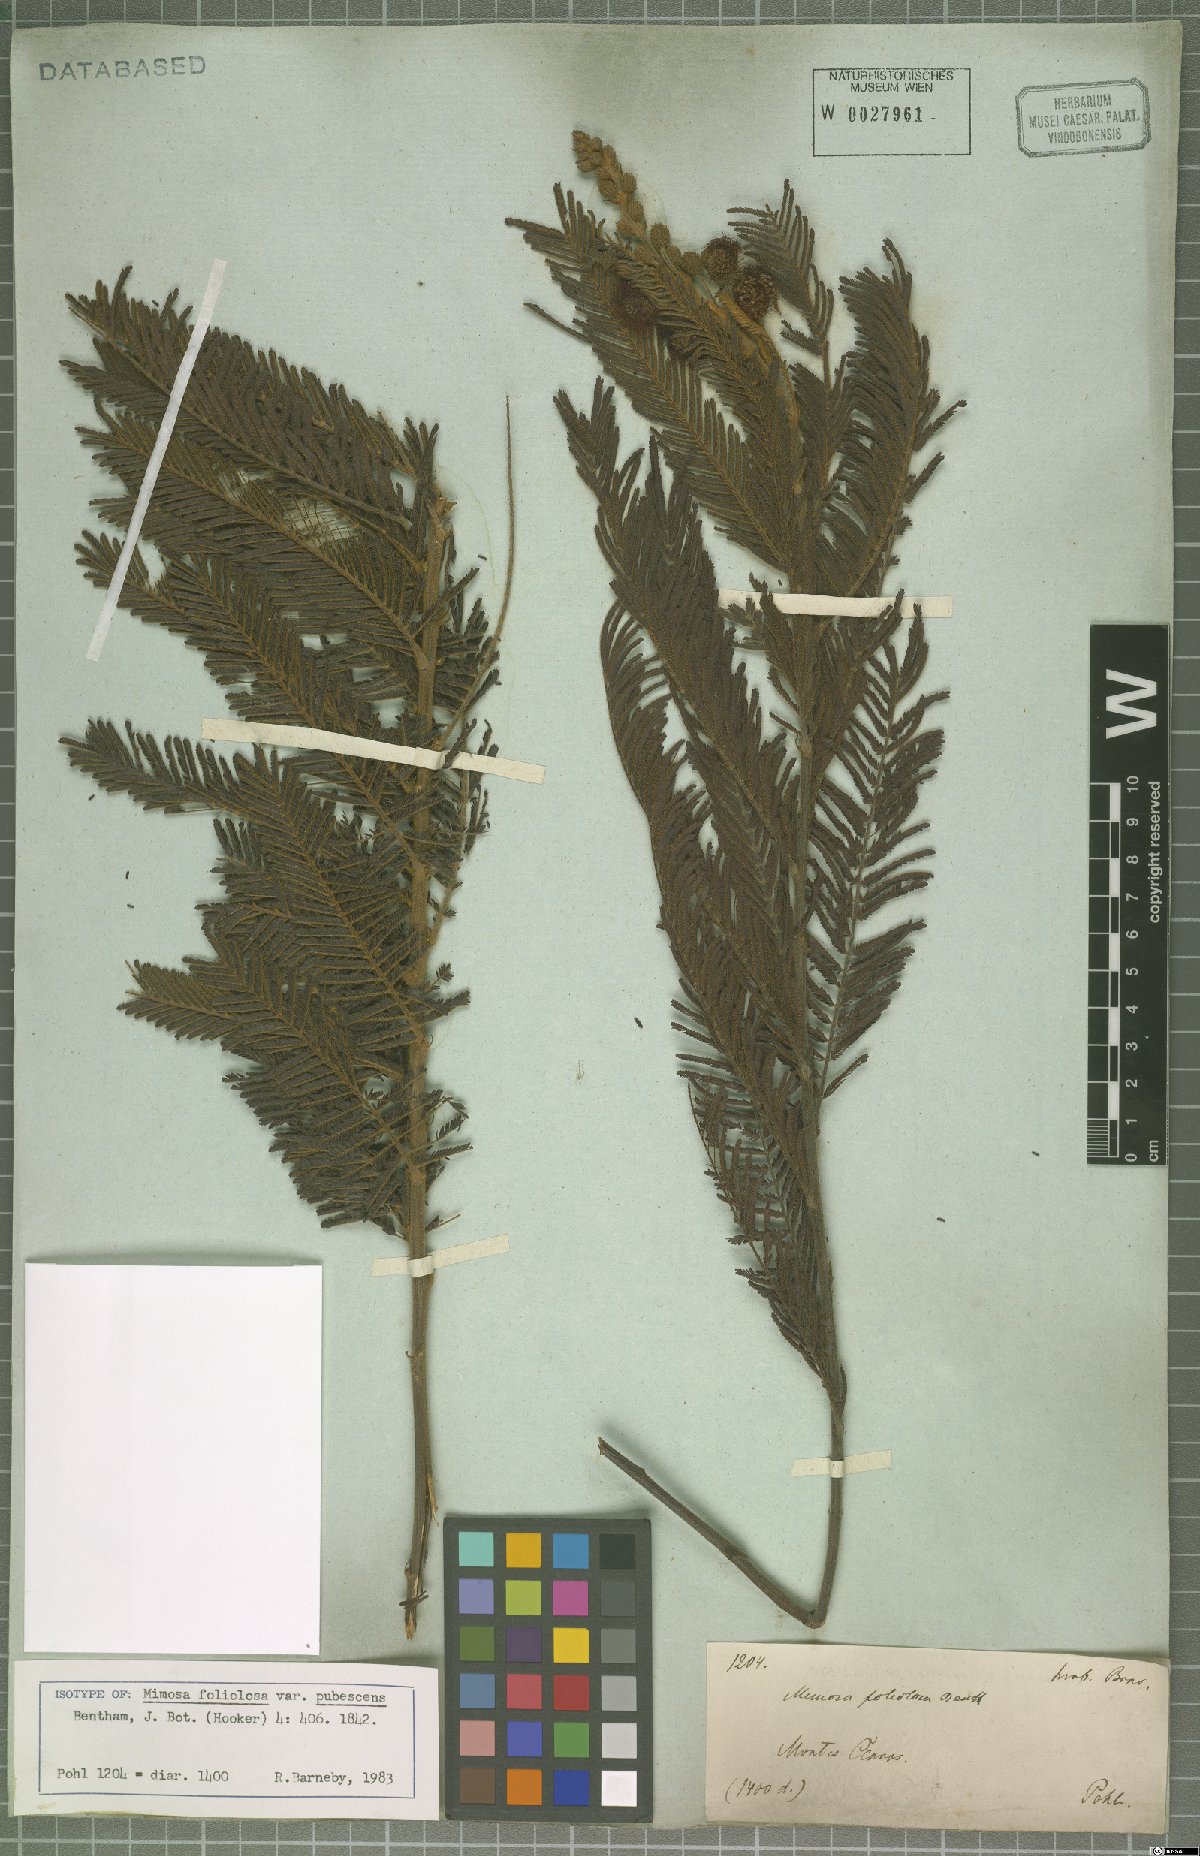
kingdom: Plantae
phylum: Tracheophyta
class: Magnoliopsida
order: Fabales
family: Fabaceae
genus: Mimosa
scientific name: Mimosa foliolosa
